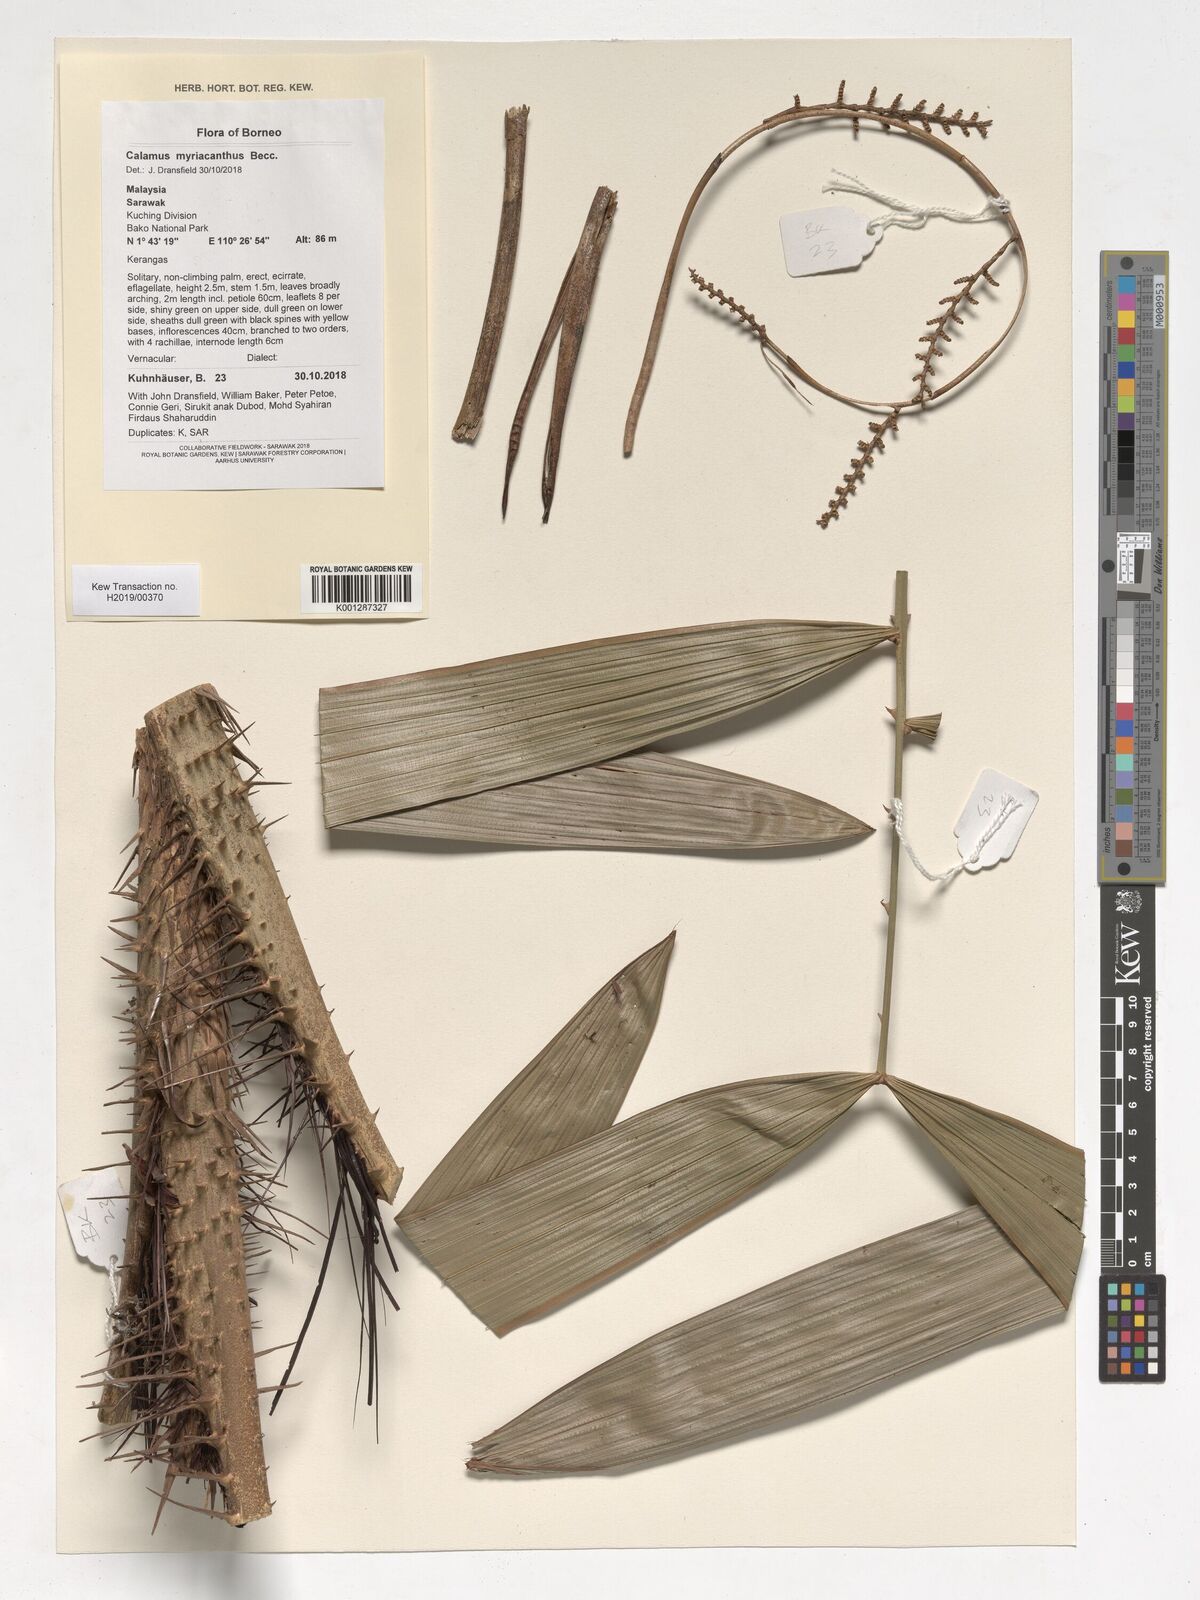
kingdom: Plantae
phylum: Tracheophyta
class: Liliopsida
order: Arecales
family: Arecaceae
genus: Calamus
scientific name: Calamus myriacanthus
